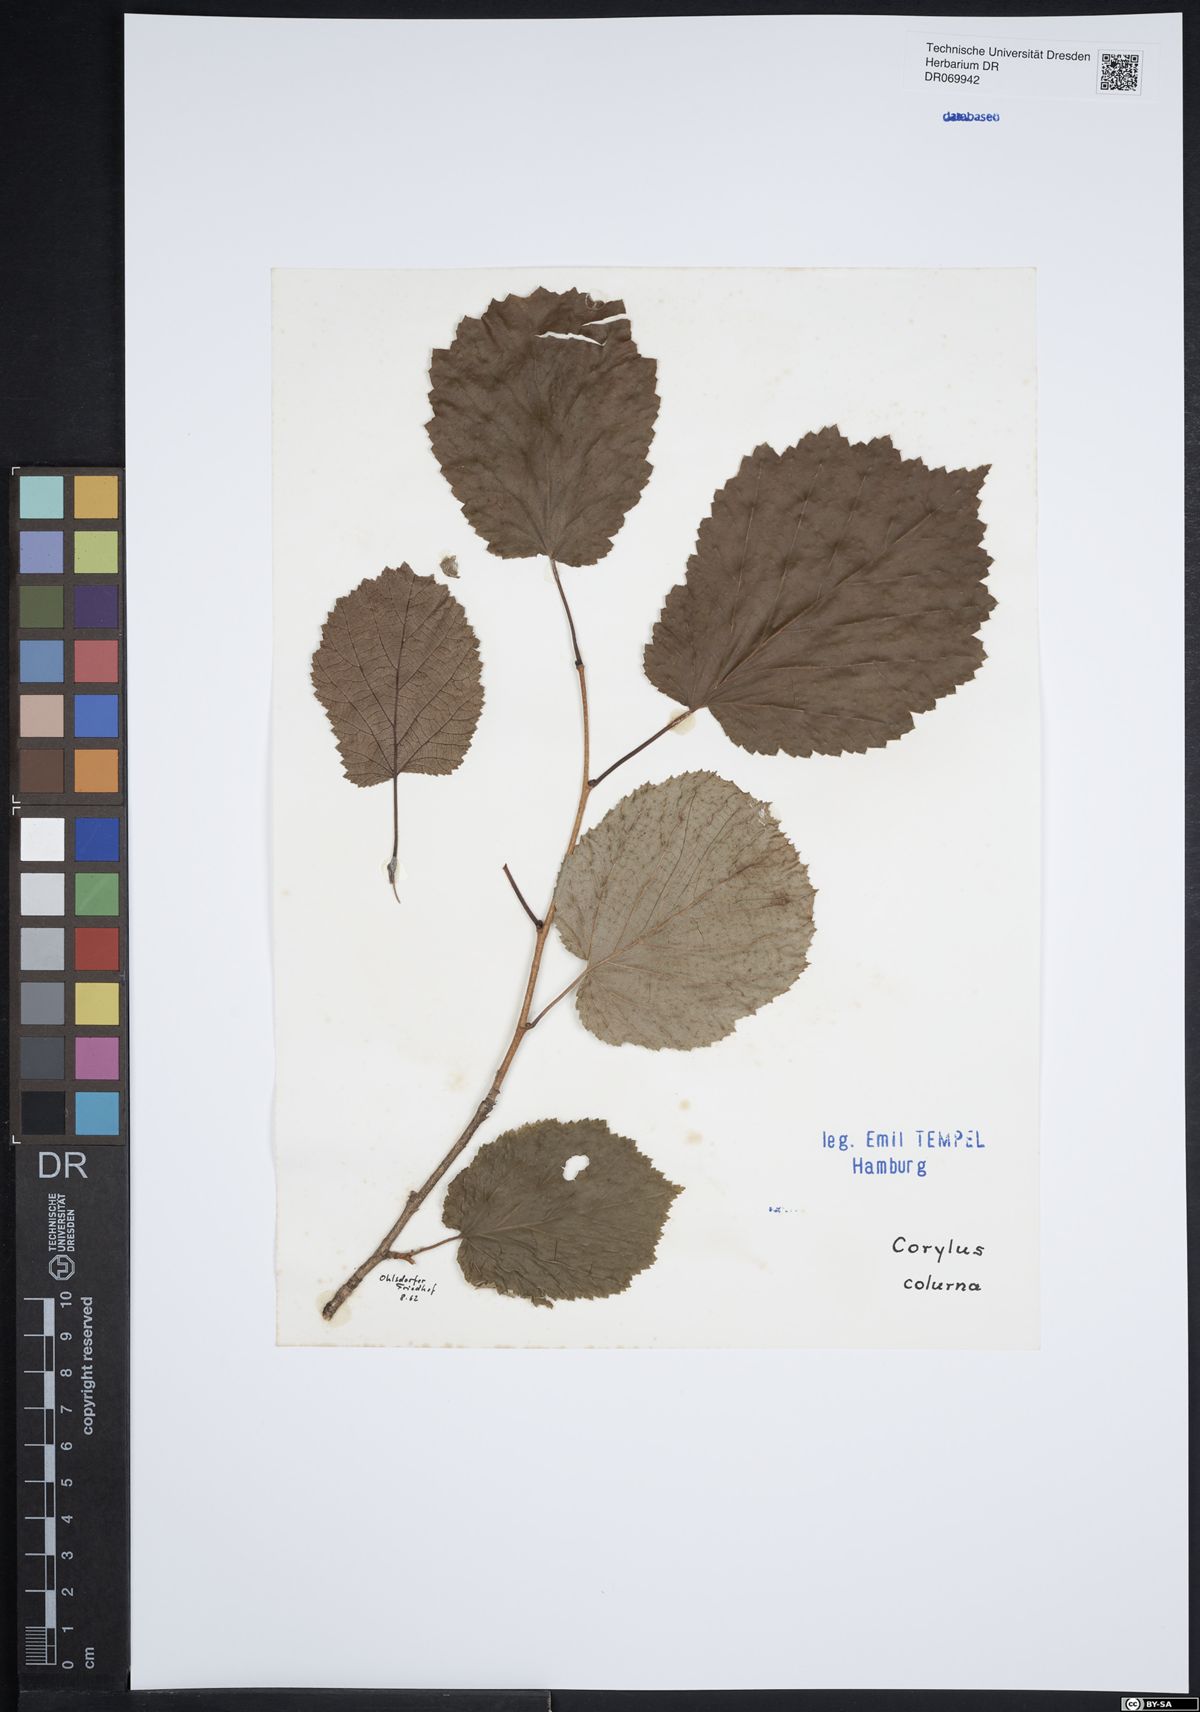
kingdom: Plantae
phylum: Tracheophyta
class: Magnoliopsida
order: Fagales
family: Betulaceae
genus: Corylus
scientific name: Corylus colurna
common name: Turkish hazel
